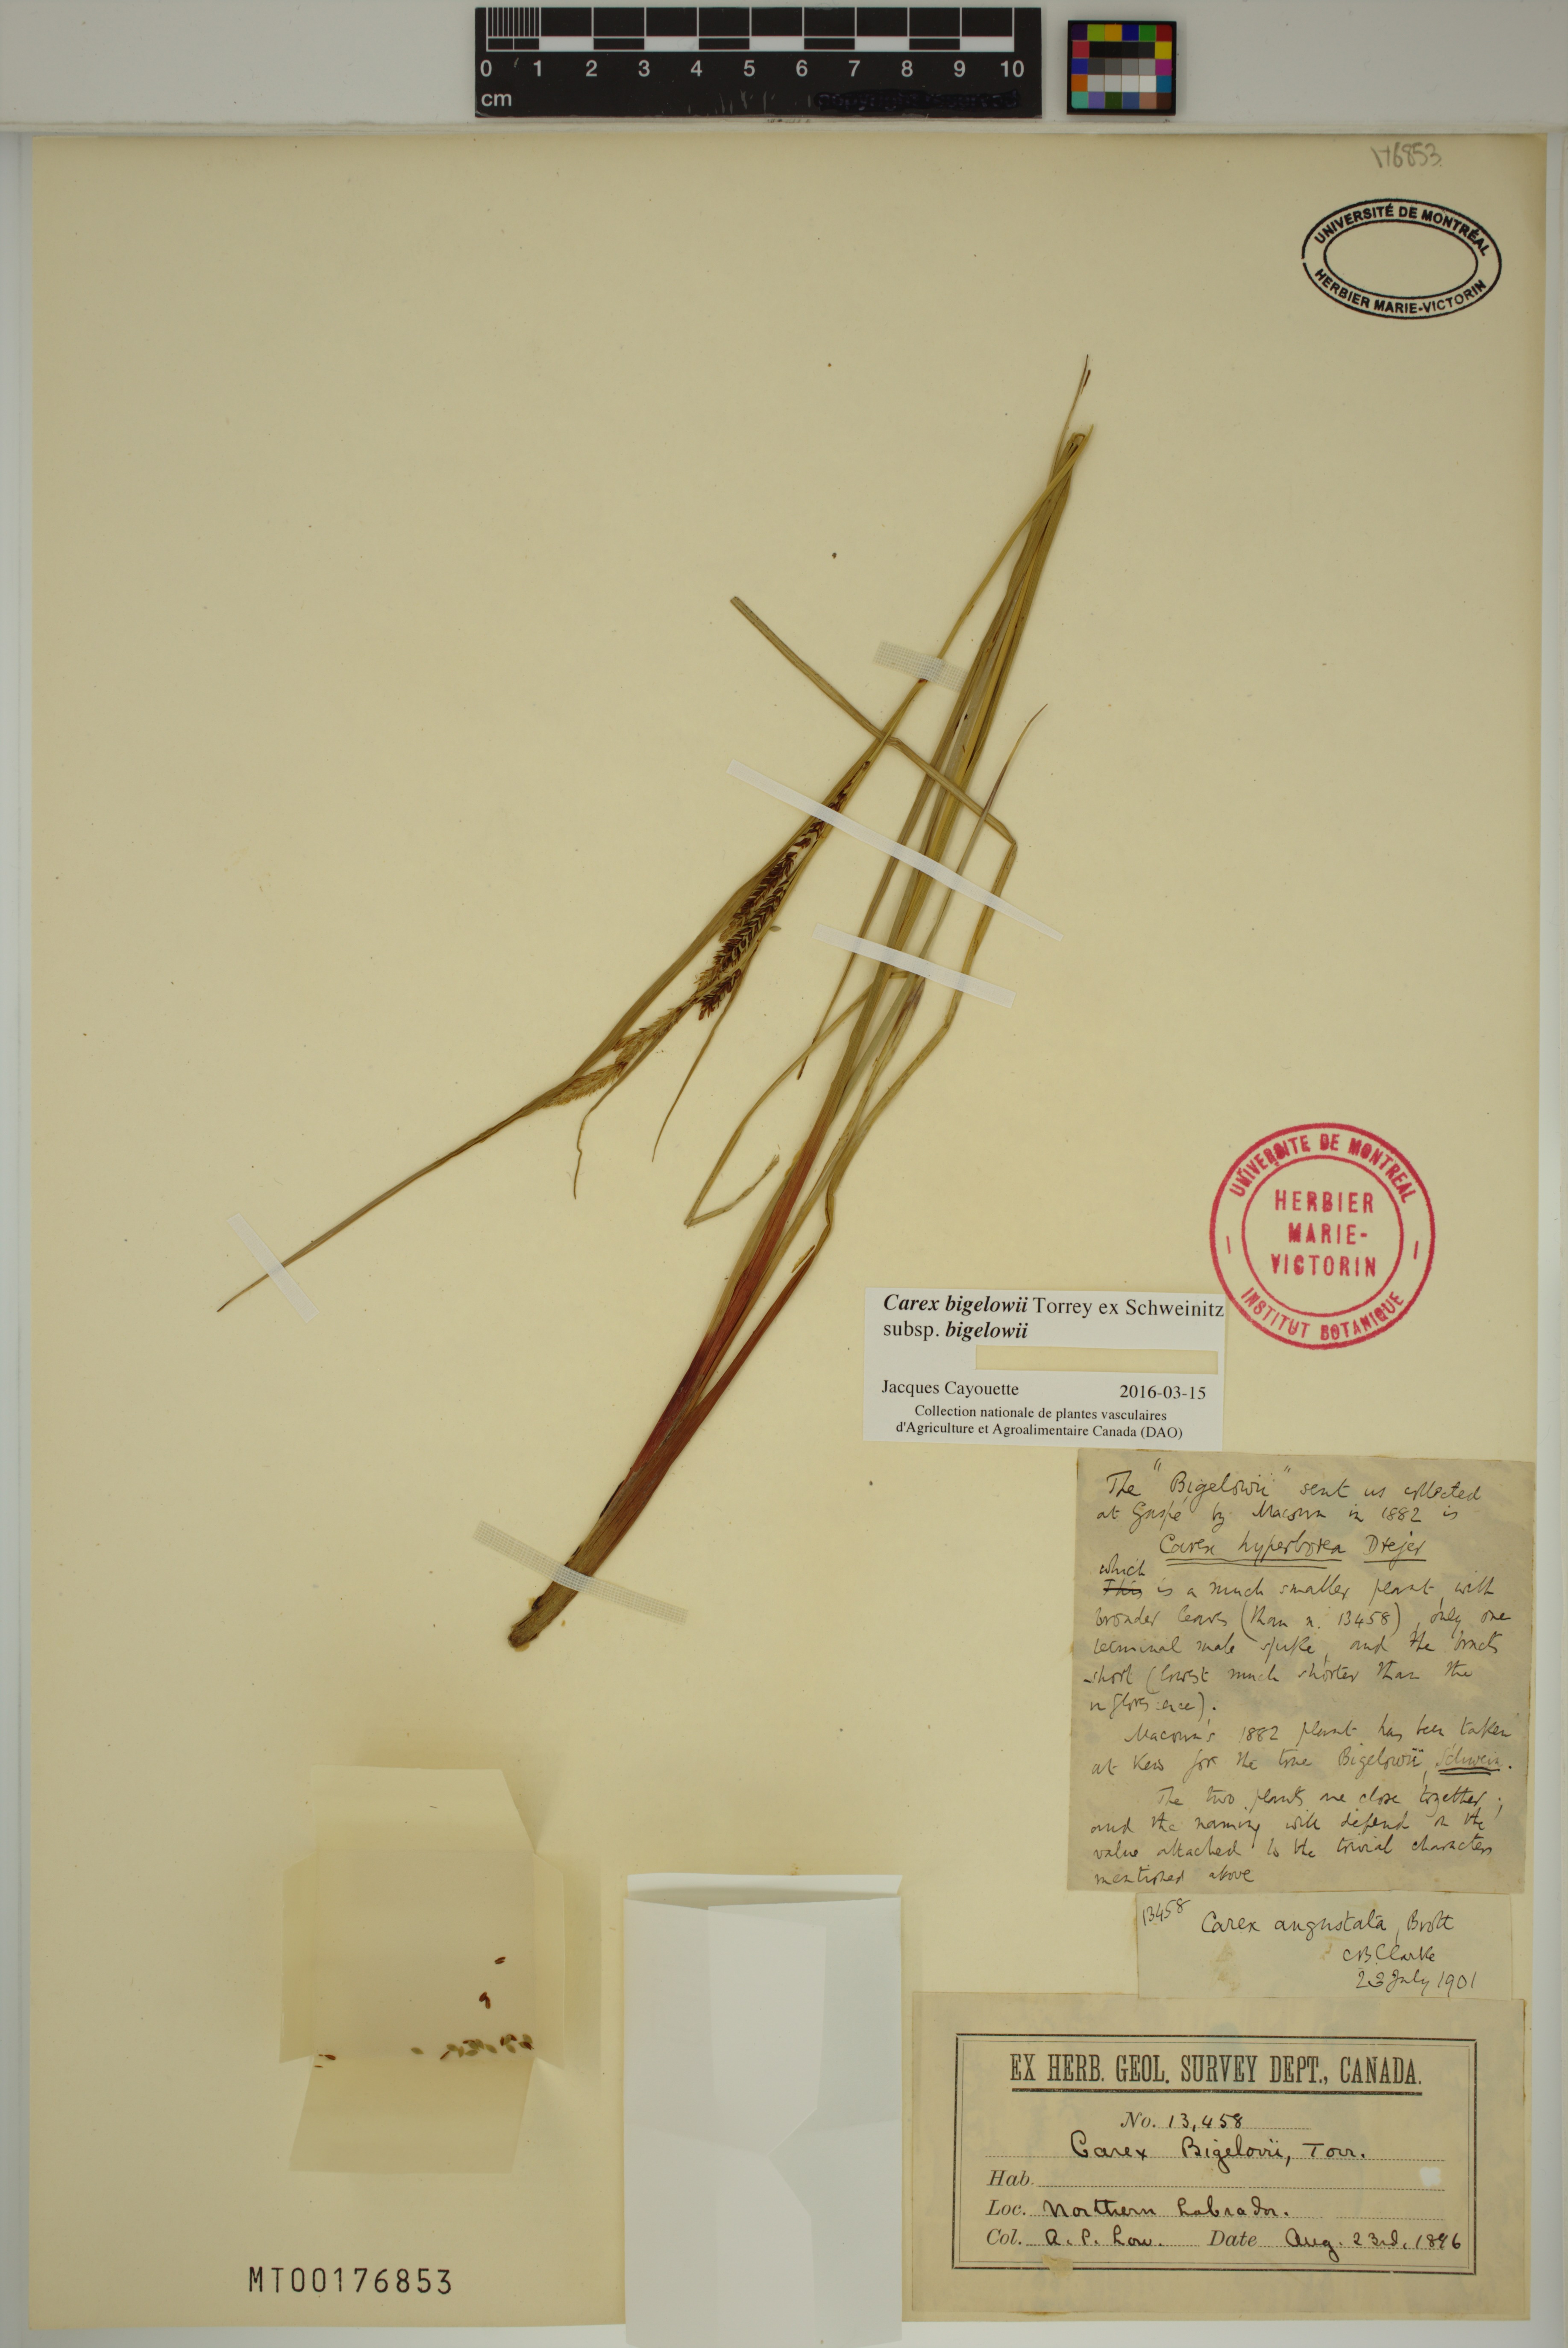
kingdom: Plantae
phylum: Tracheophyta
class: Liliopsida
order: Poales
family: Cyperaceae
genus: Carex
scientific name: Carex bigelowii
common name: Stiff sedge
